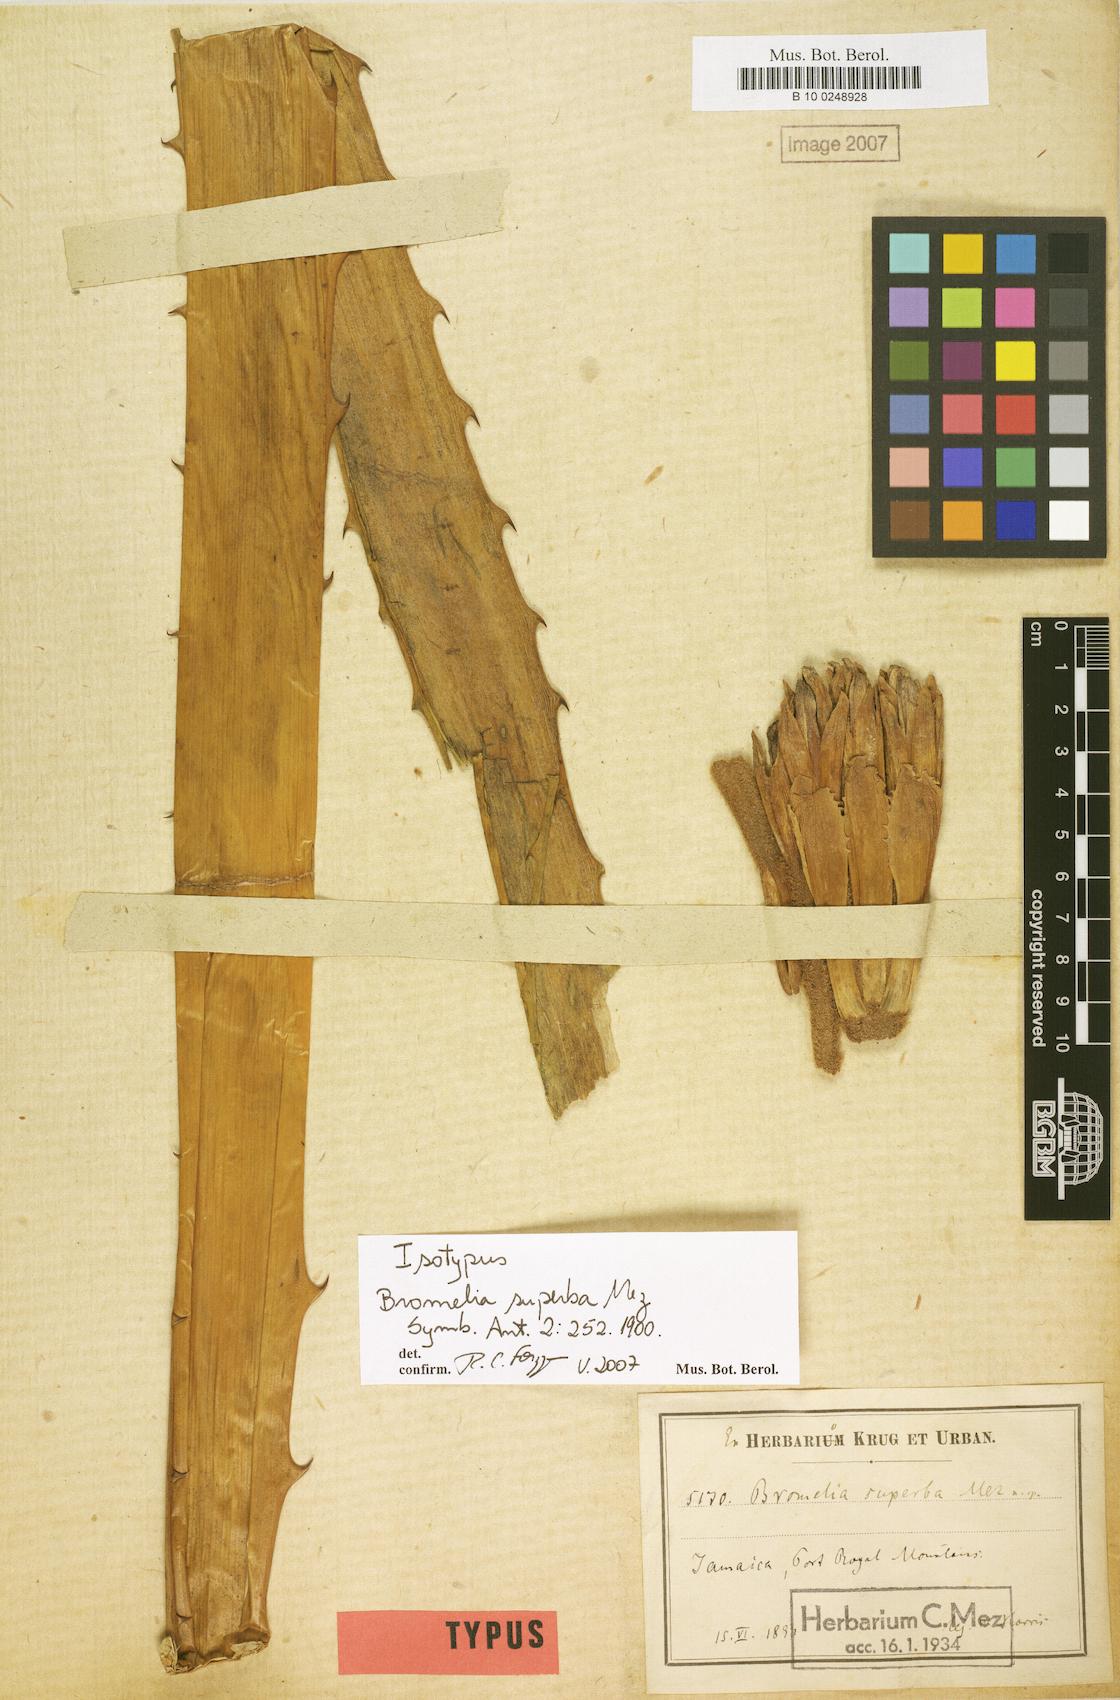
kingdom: Plantae
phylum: Tracheophyta
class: Liliopsida
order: Poales
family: Bromeliaceae
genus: Bromelia
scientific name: Bromelia superba
